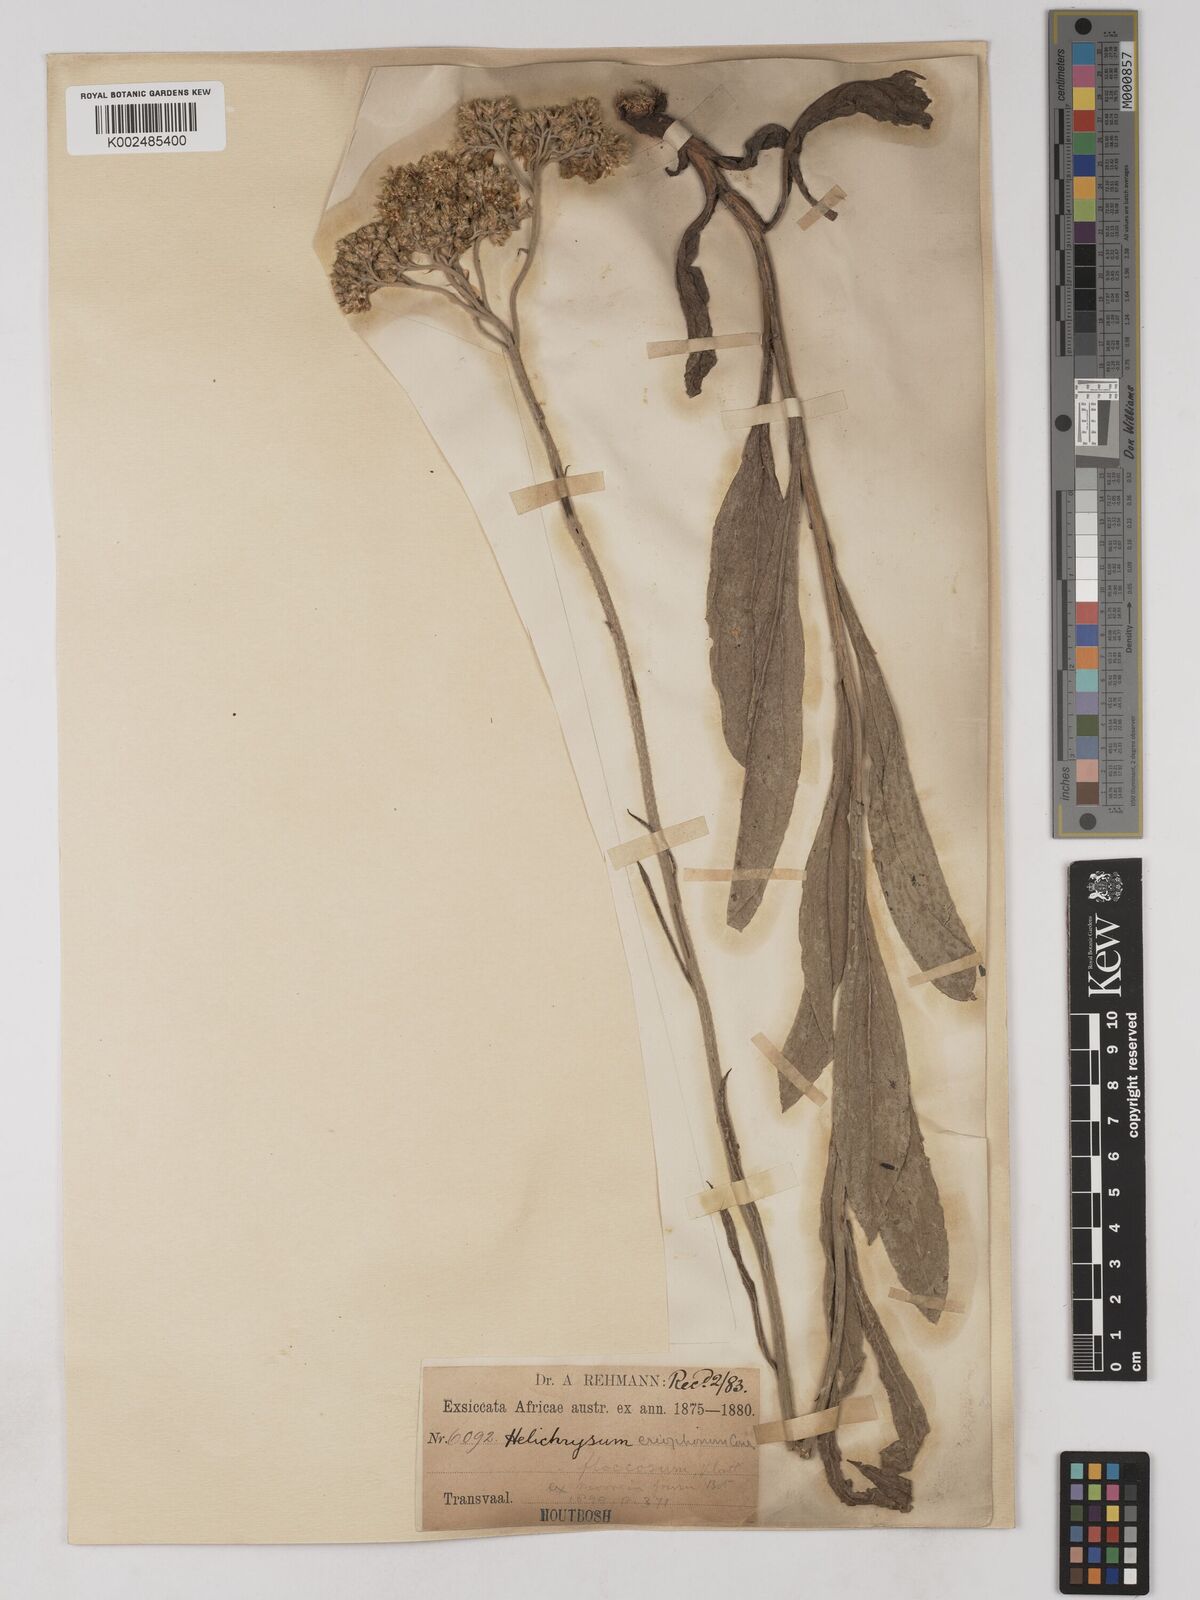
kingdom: Plantae
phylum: Tracheophyta
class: Magnoliopsida
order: Asterales
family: Asteraceae
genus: Helichrysum
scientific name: Helichrysum acutatum
